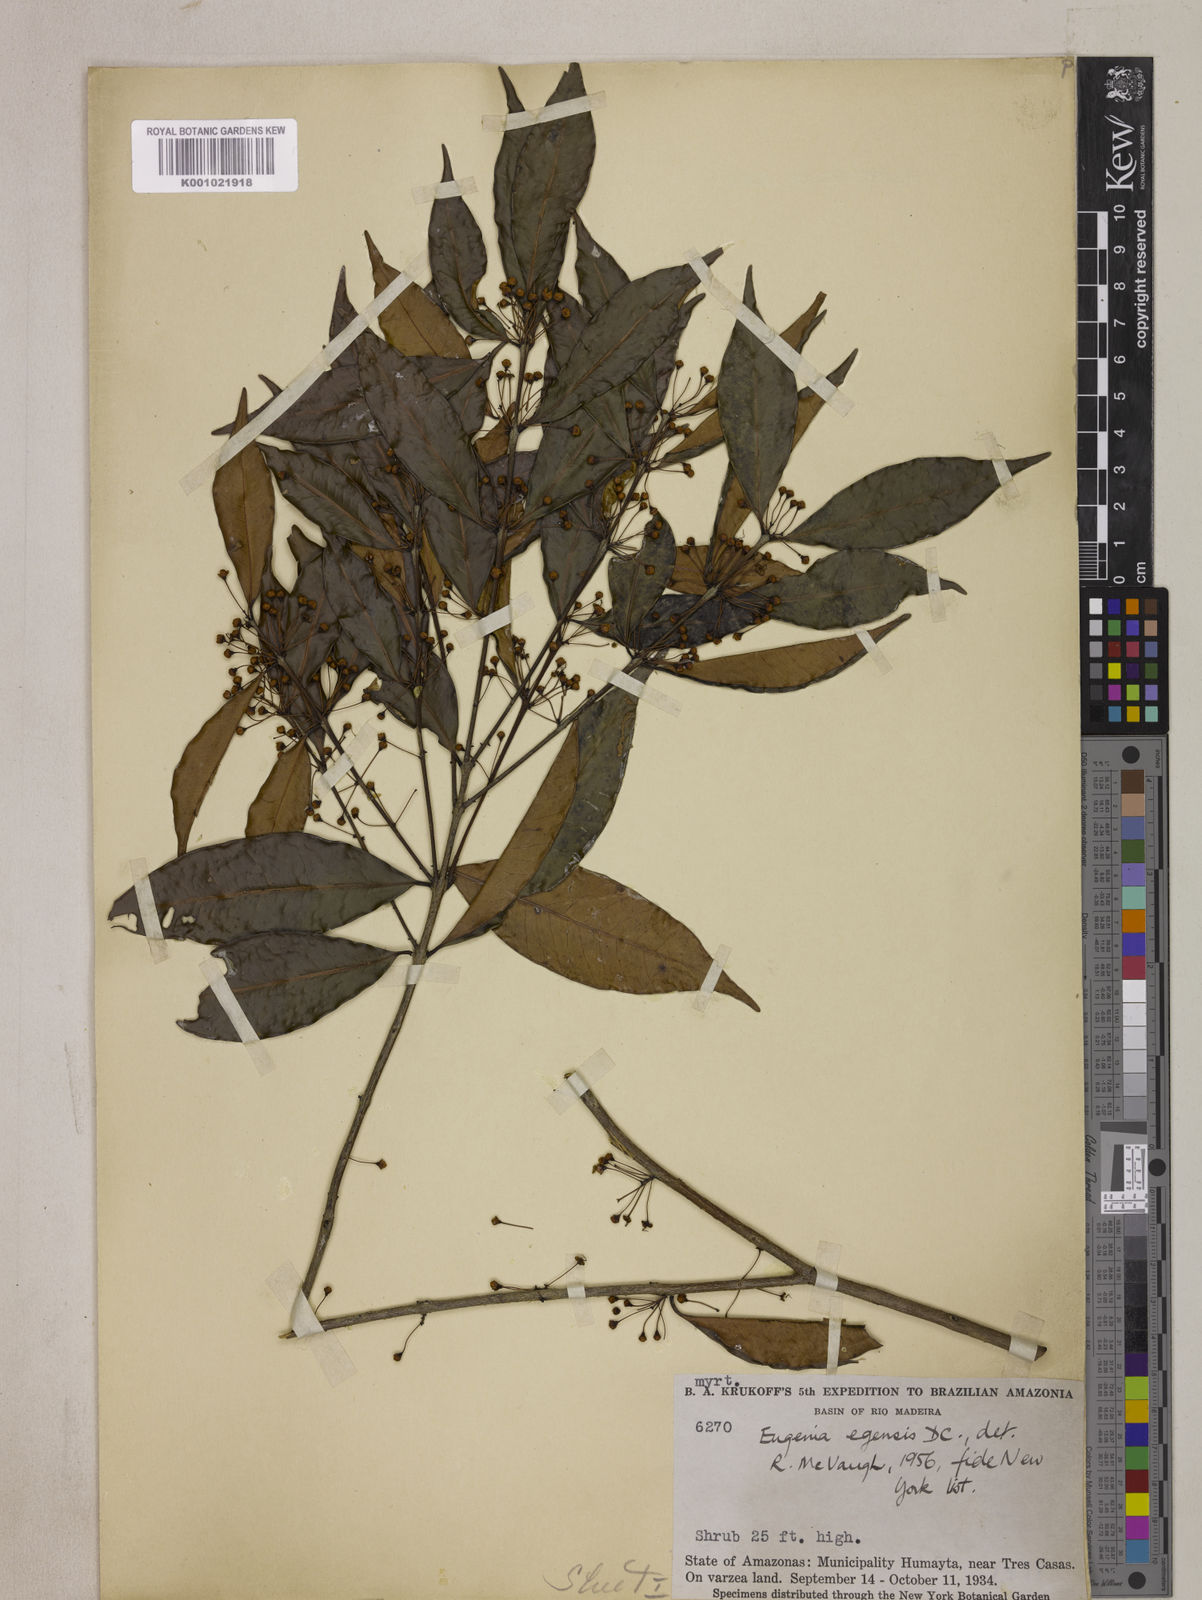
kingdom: Plantae
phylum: Tracheophyta
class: Magnoliopsida
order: Myrtales
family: Myrtaceae
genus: Eugenia
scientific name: Eugenia egensis
